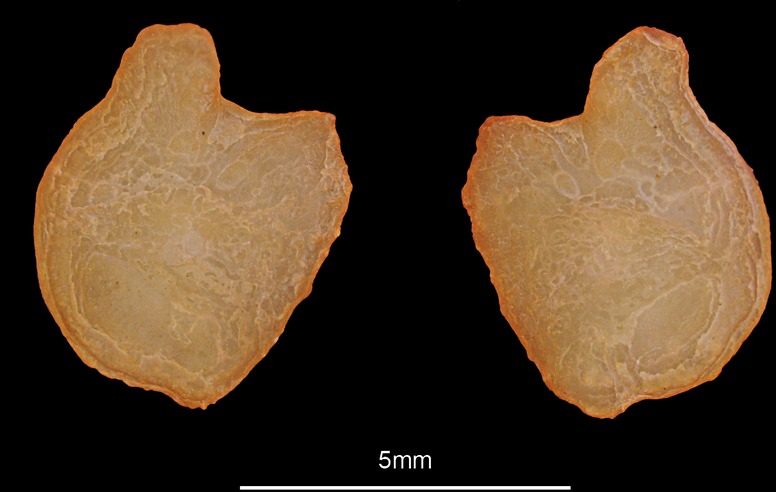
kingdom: Animalia
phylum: Chordata
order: Perciformes
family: Gobiidae
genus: Zosterisessor
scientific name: Zosterisessor ophiocephalus
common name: Grass goby
